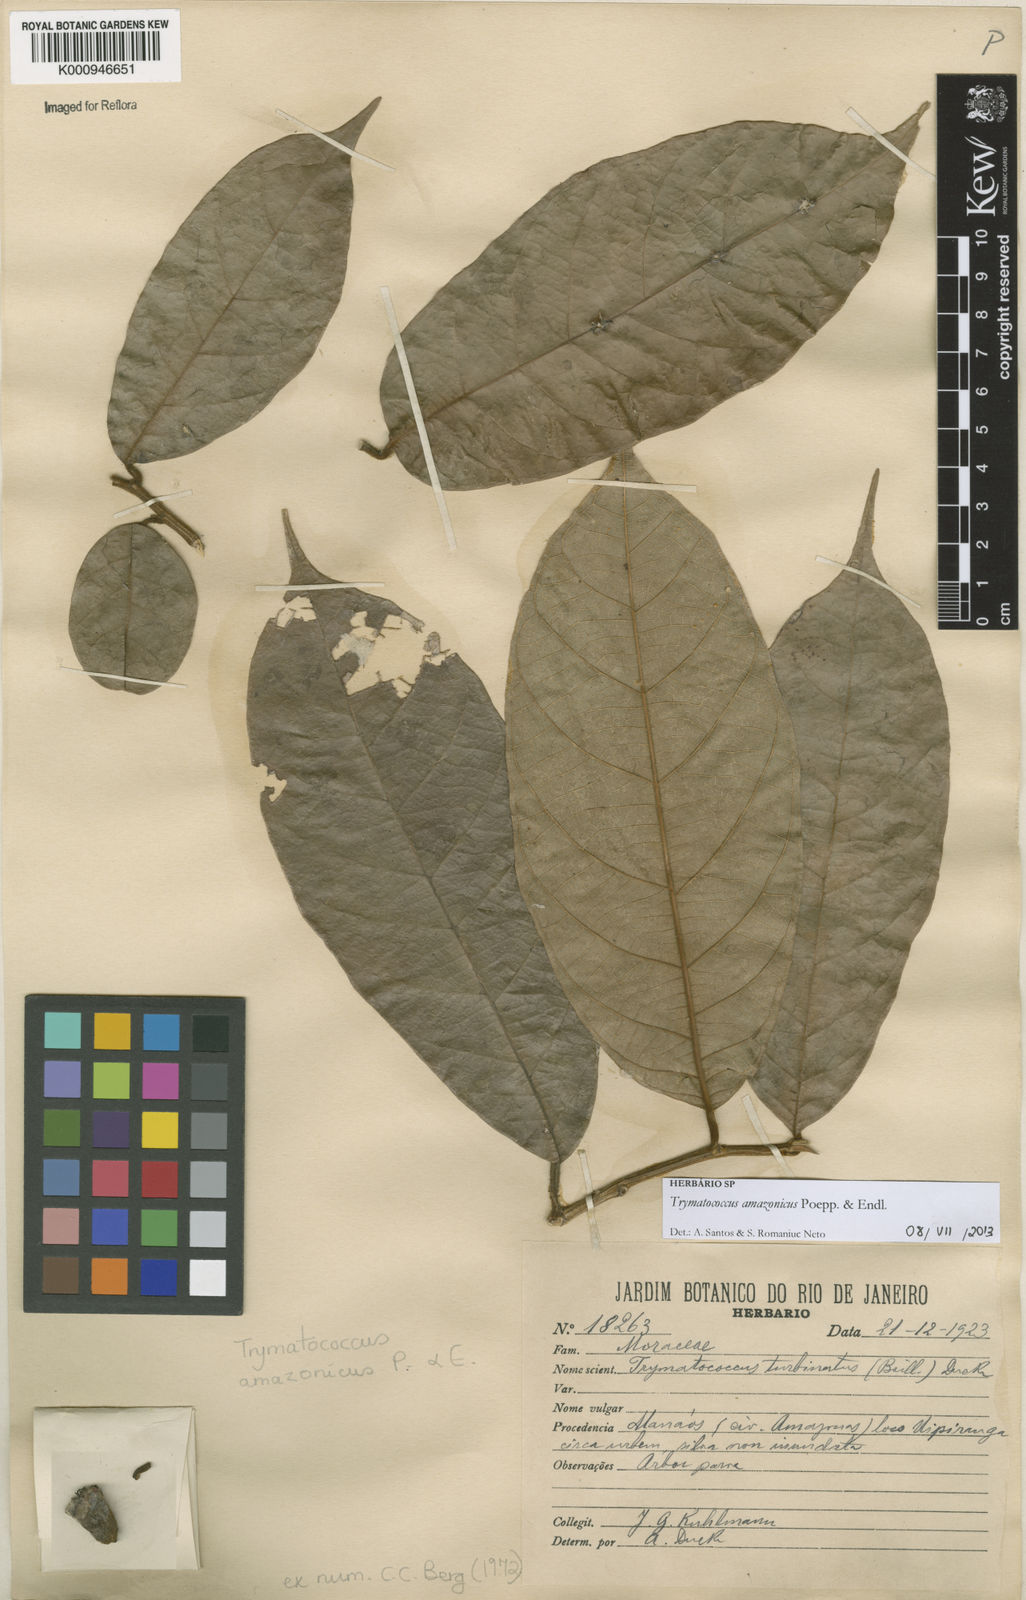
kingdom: Plantae
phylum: Tracheophyta
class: Magnoliopsida
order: Rosales
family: Moraceae
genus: Brosimum
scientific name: Brosimum amazonicum
